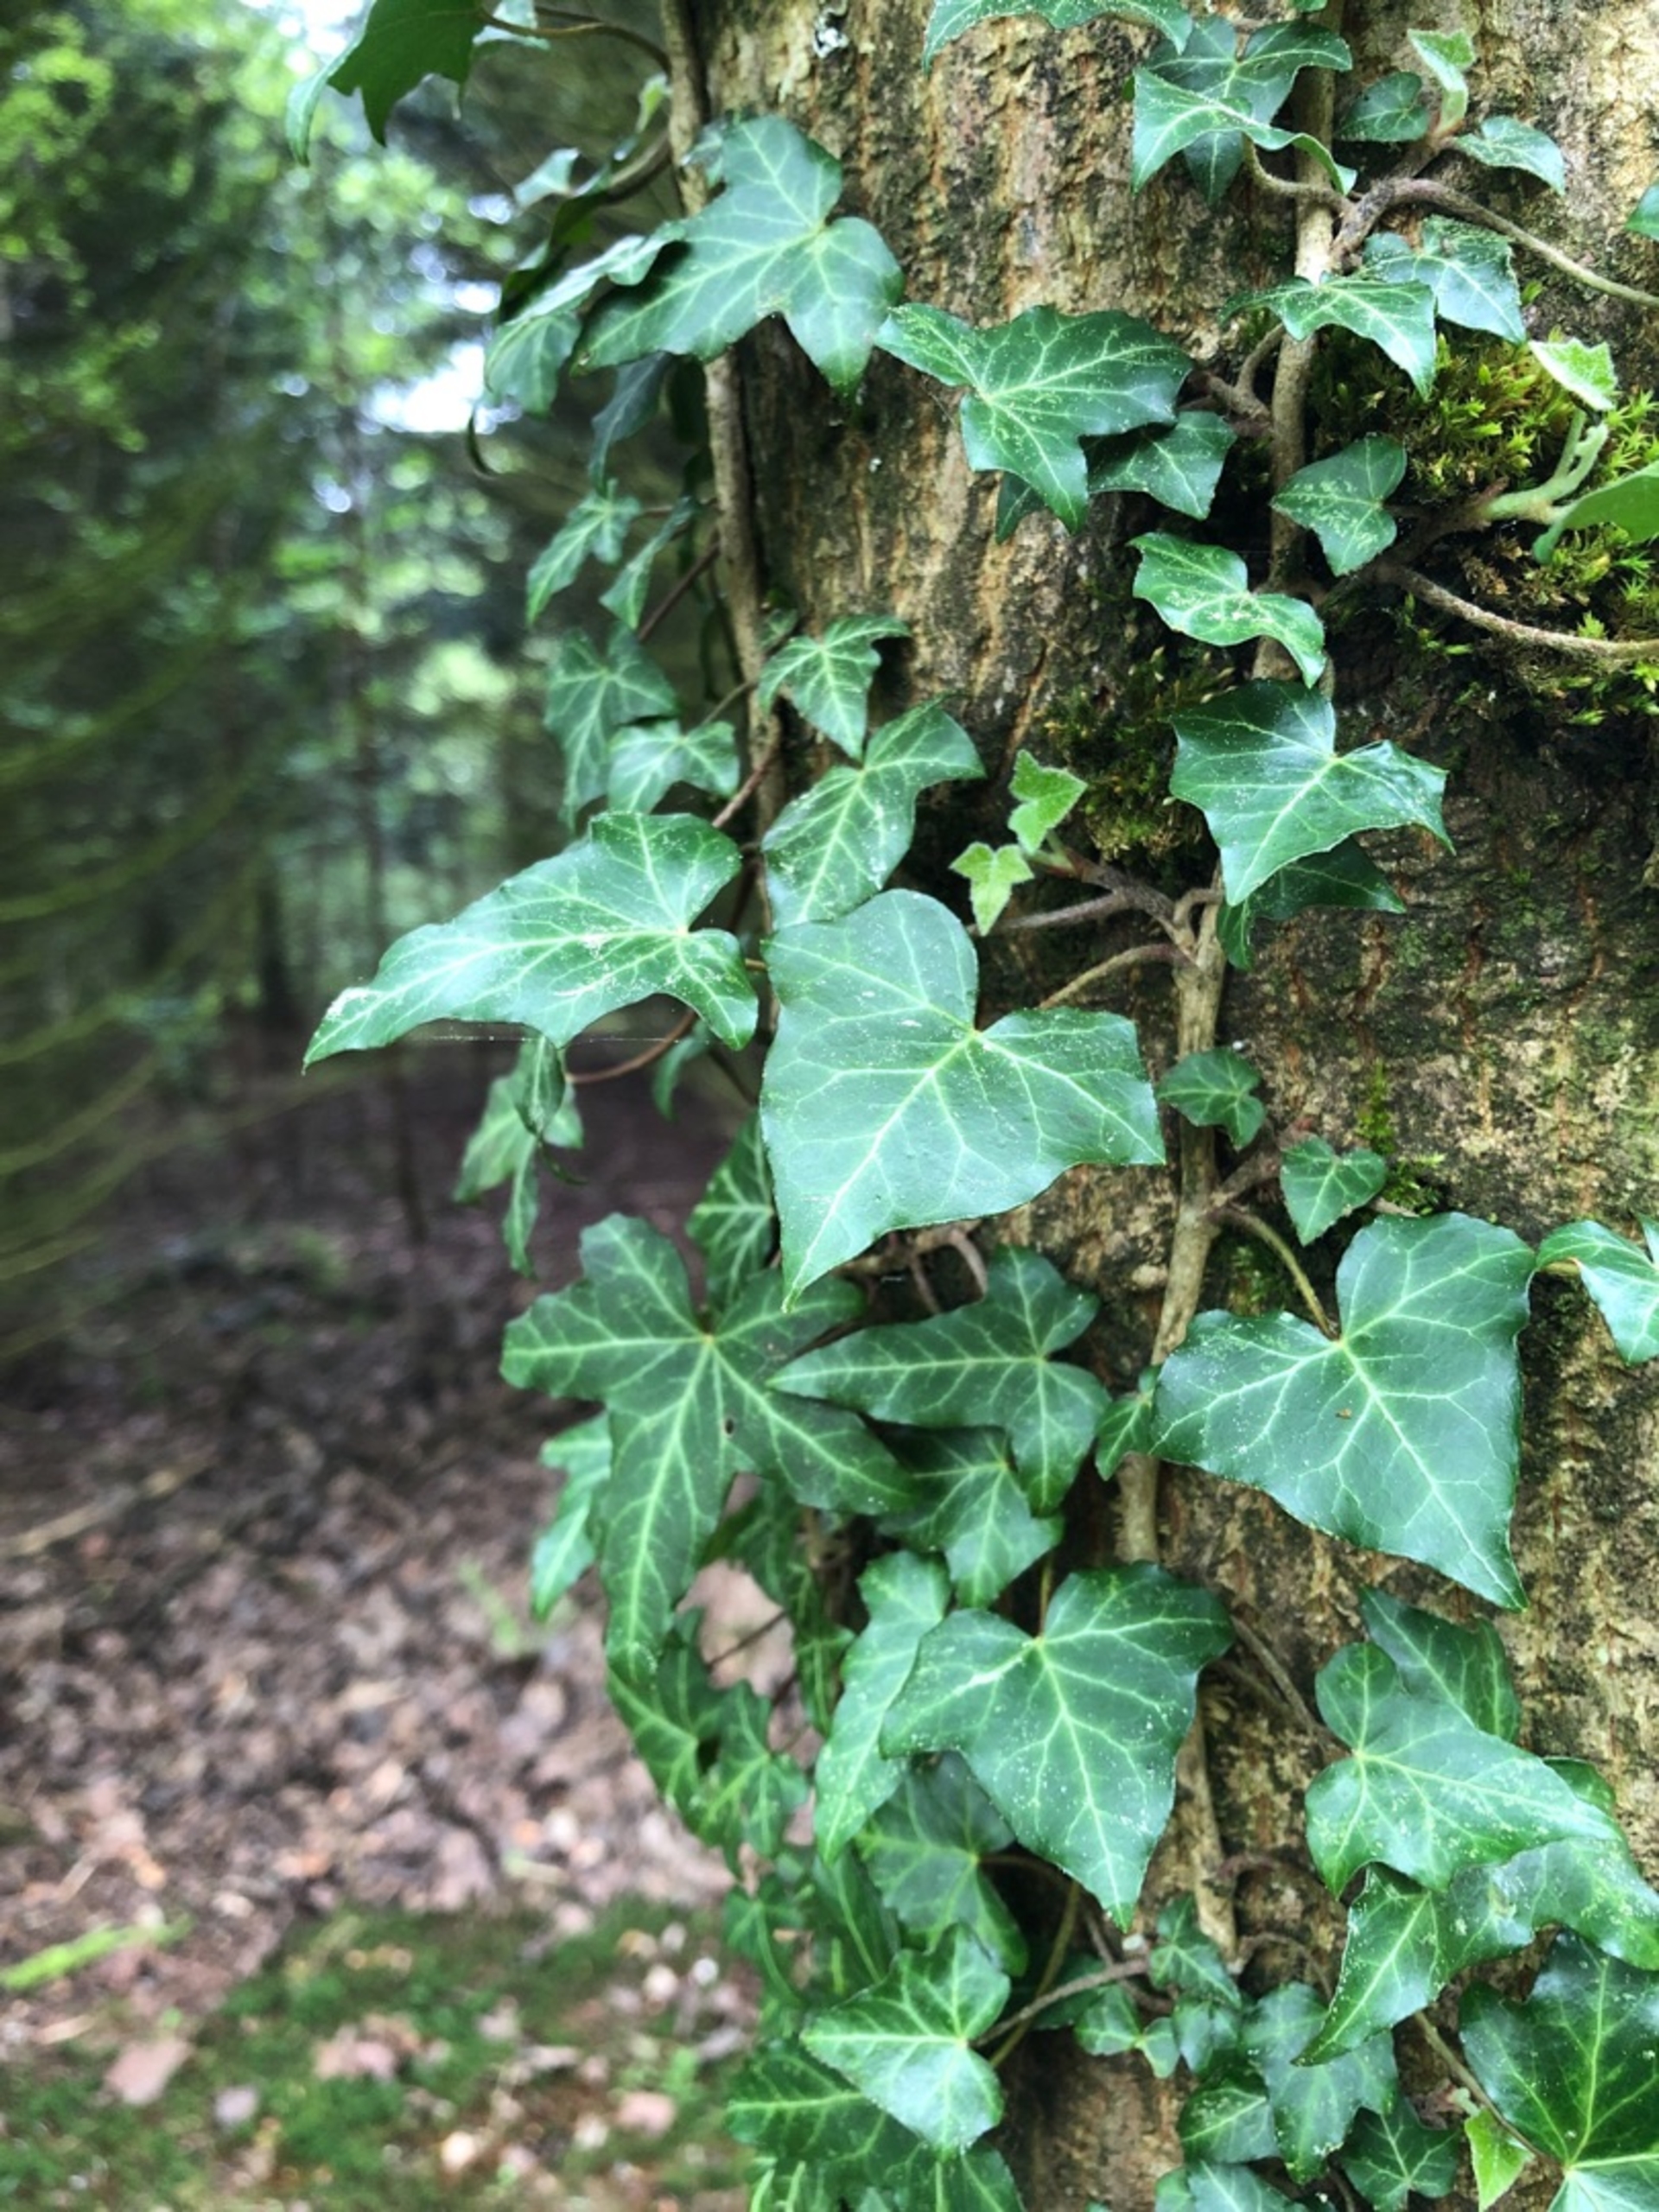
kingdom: Plantae
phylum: Tracheophyta
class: Magnoliopsida
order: Apiales
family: Araliaceae
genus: Hedera
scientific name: Hedera helix
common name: Vedbend
